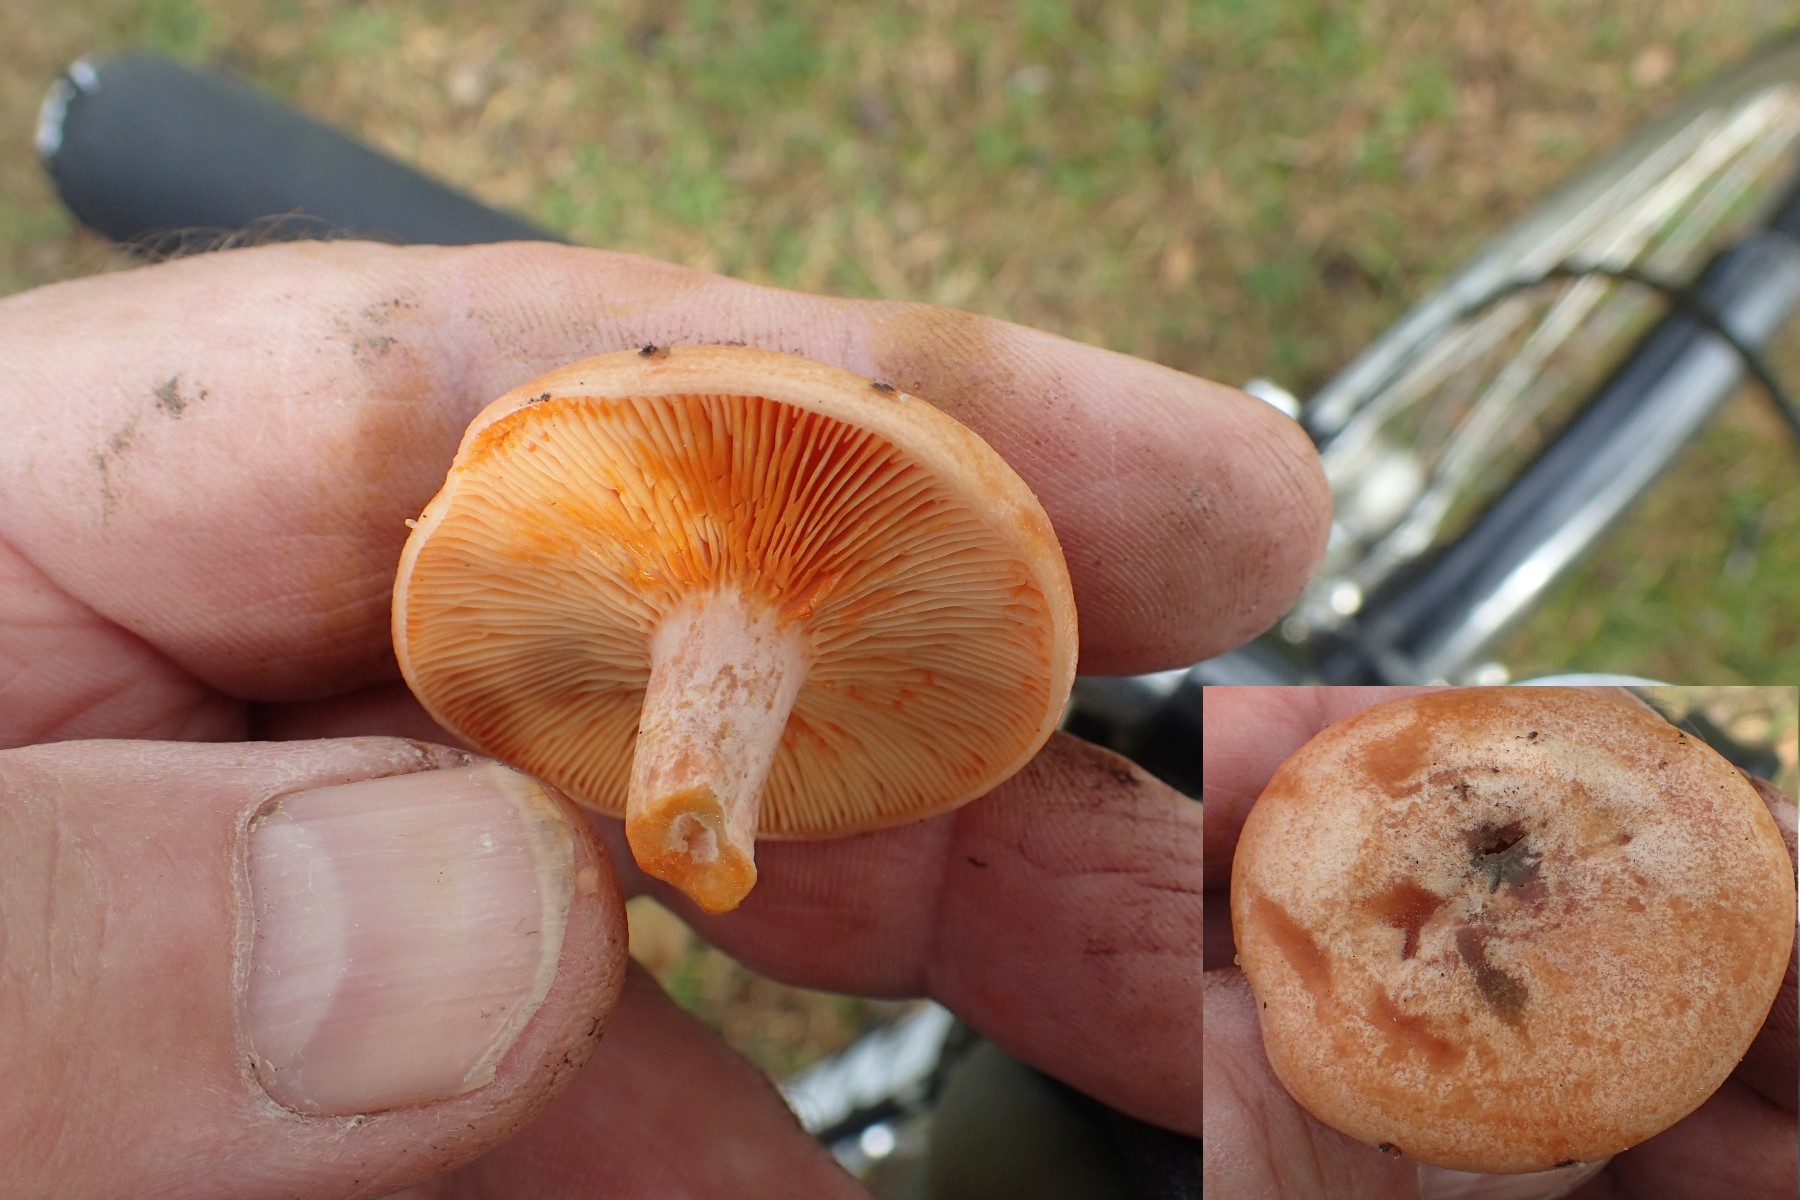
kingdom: Fungi
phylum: Basidiomycota
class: Agaricomycetes
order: Russulales
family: Russulaceae
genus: Lactarius
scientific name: Lactarius deliciosus
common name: velsmagende mælkehat
